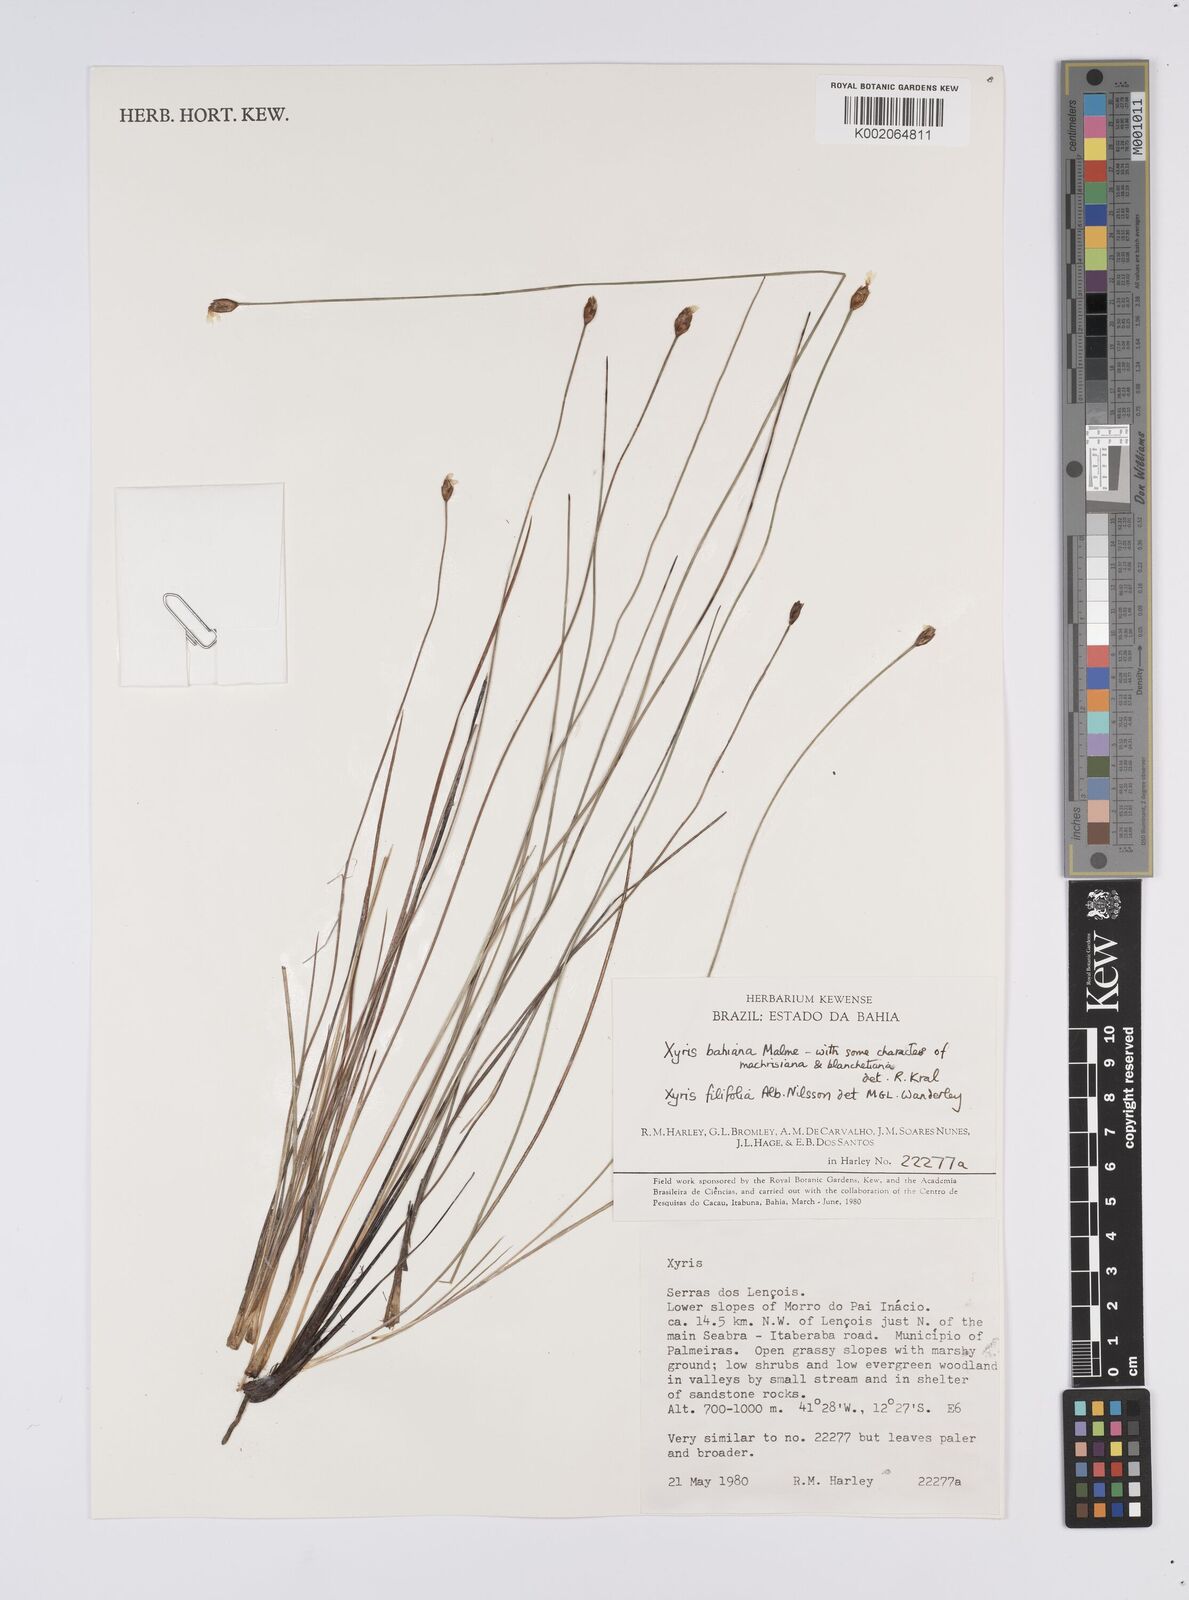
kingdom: Plantae
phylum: Tracheophyta
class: Liliopsida
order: Poales
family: Xyridaceae
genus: Xyris
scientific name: Xyris bahiana
